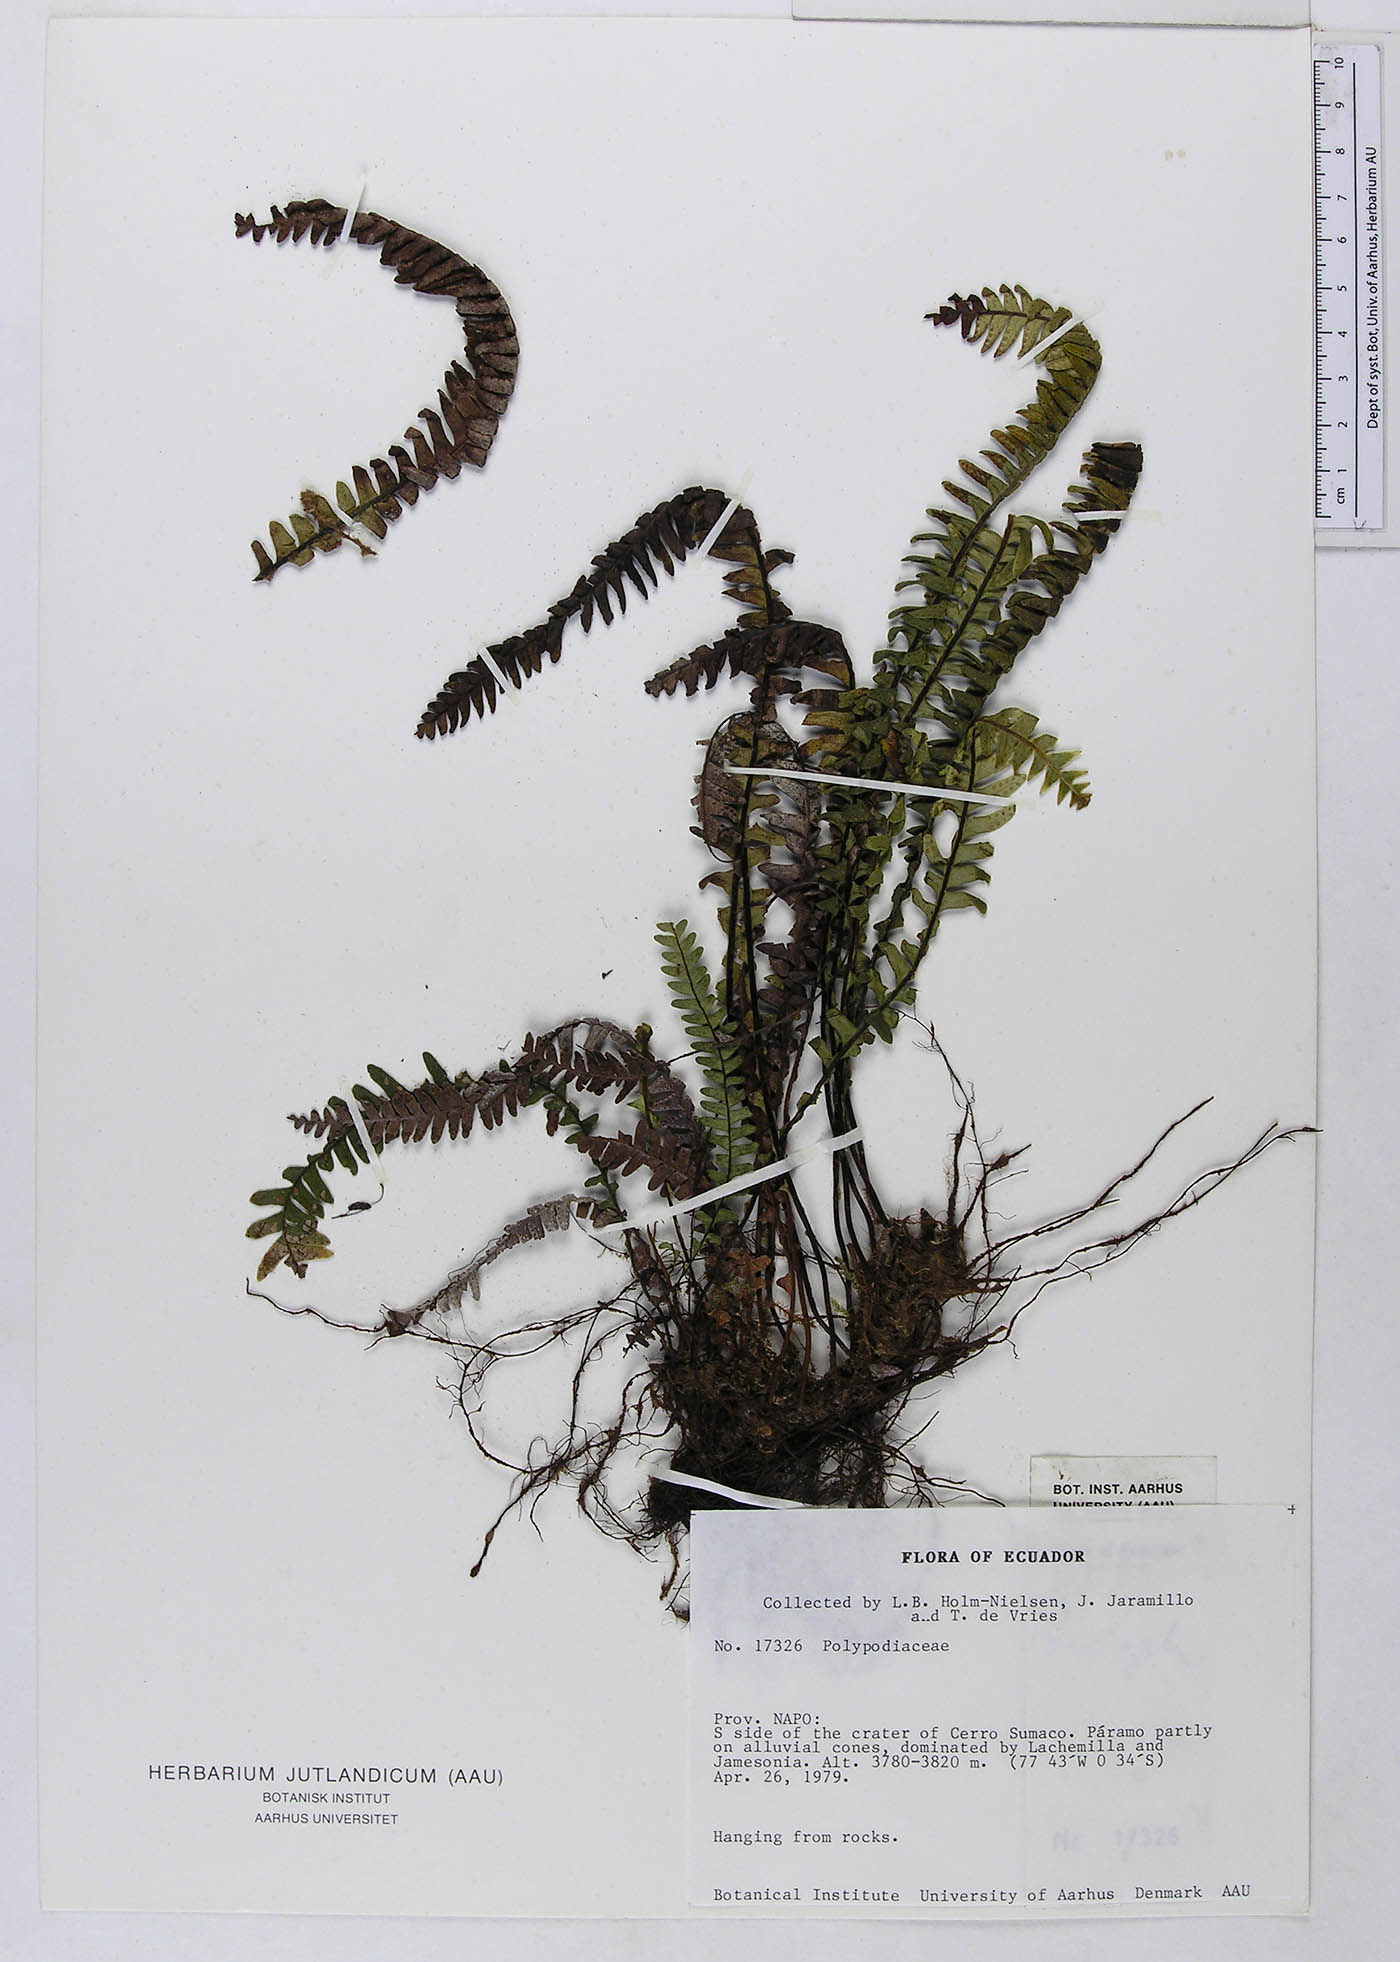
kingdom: Plantae
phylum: Tracheophyta
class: Polypodiopsida
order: Polypodiales
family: Polypodiaceae
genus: Lellingeria
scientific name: Lellingeria
